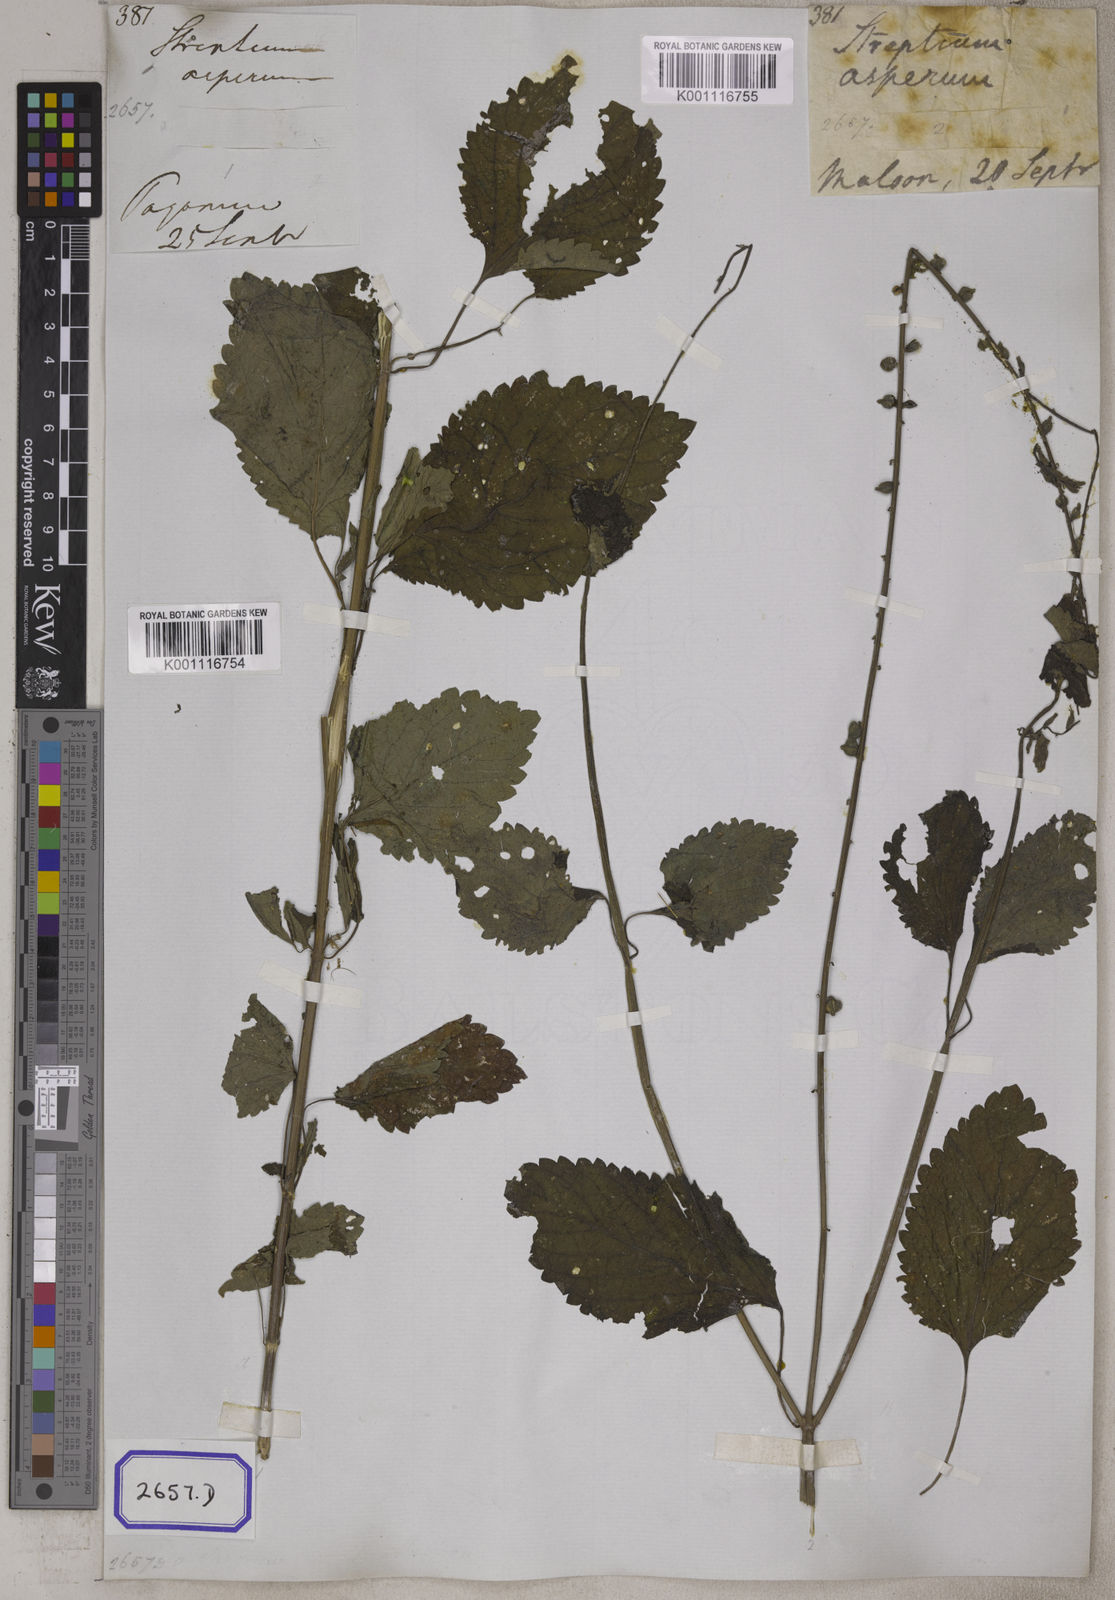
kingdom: Plantae
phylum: Tracheophyta
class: Magnoliopsida
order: Lamiales
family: Verbenaceae
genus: Priva
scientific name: Priva cordifolia
